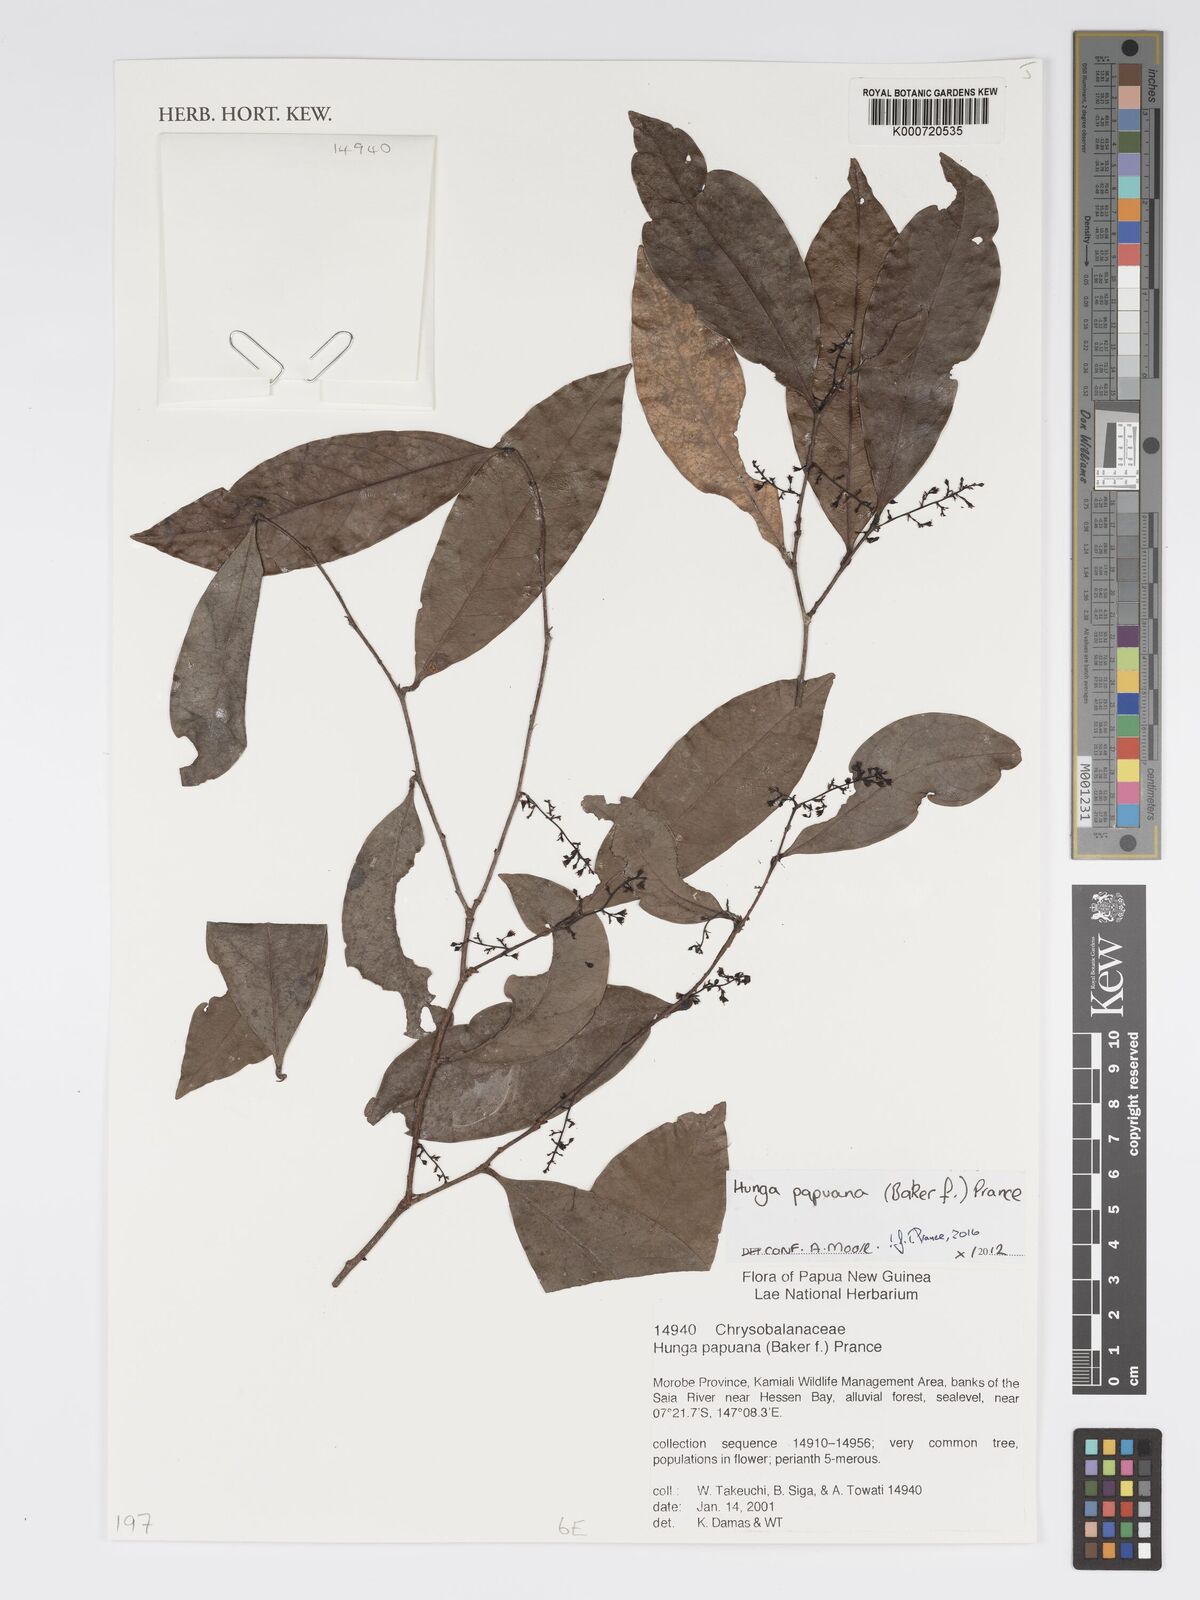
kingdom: Plantae
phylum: Tracheophyta
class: Magnoliopsida
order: Malpighiales
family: Chrysobalanaceae
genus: Hunga
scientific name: Hunga papuana
